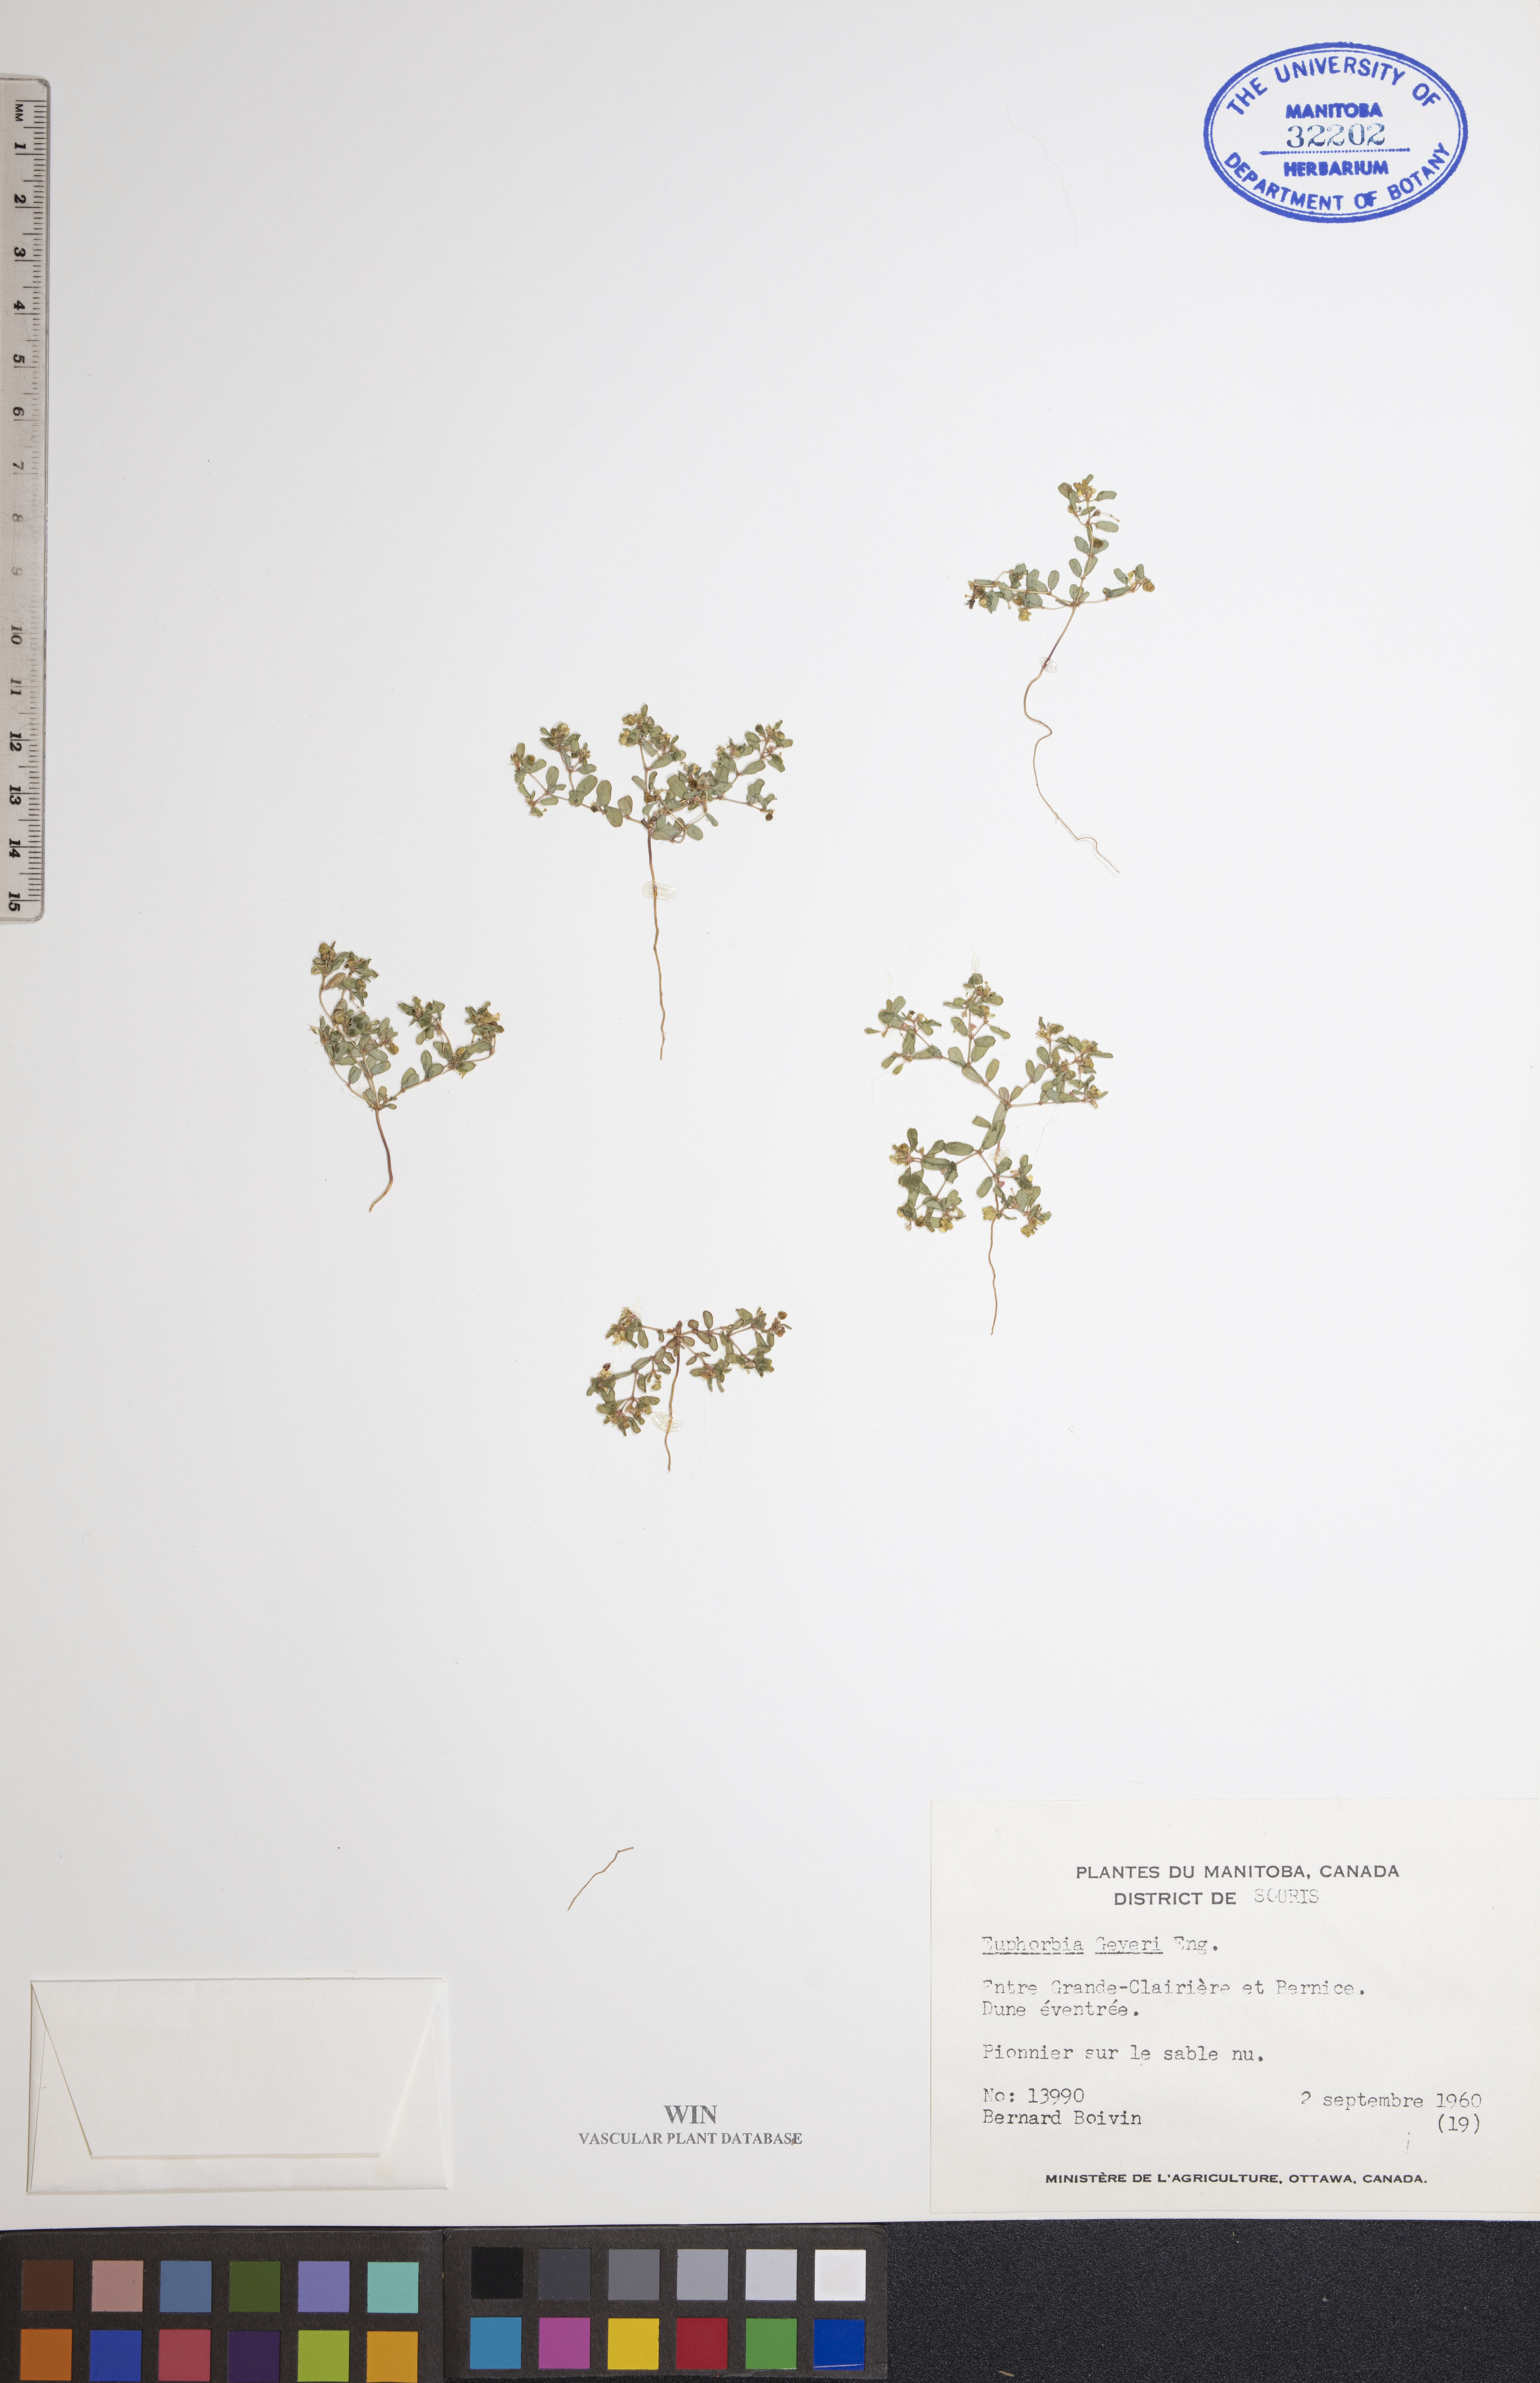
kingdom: Plantae
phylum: Tracheophyta
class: Magnoliopsida
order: Malpighiales
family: Euphorbiaceae
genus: Euphorbia
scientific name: Euphorbia geyeri
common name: Geyer's spurge
